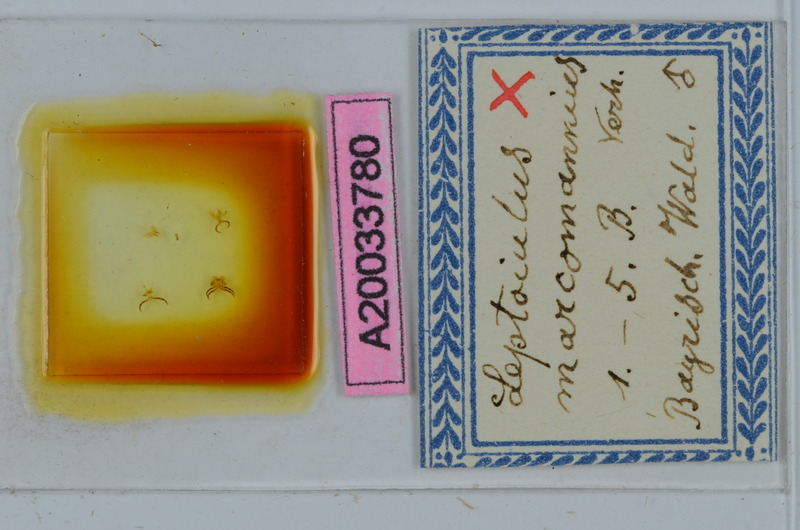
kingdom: Animalia
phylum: Arthropoda
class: Diplopoda
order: Julida
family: Julidae
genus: Leptoiulus
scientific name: Leptoiulus noricus
